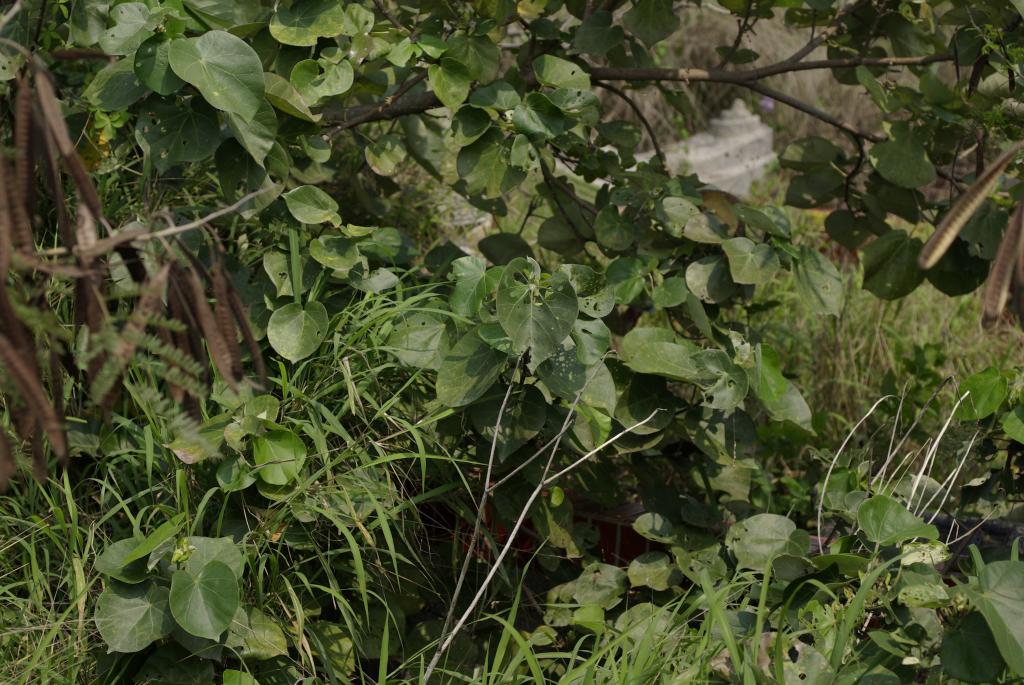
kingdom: Plantae
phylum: Tracheophyta
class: Magnoliopsida
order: Malvales
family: Malvaceae
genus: Talipariti
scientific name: Talipariti tiliaceum
